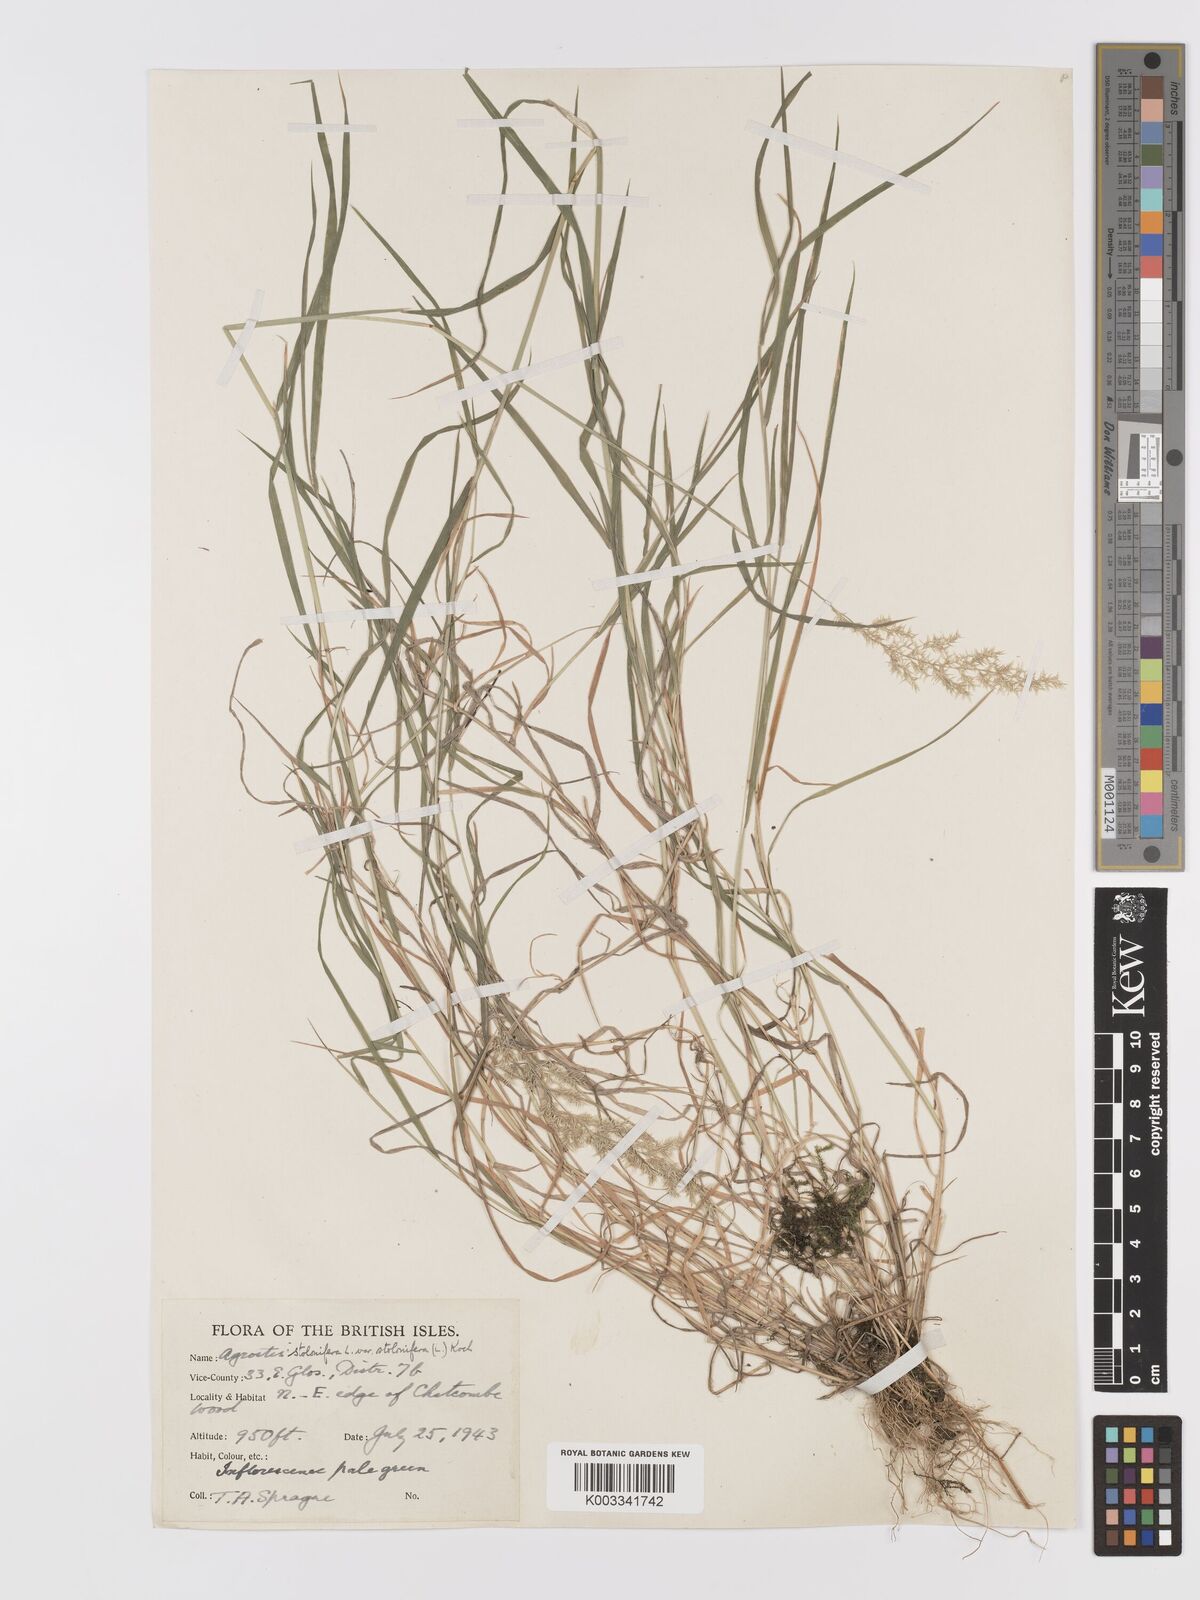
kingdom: Plantae
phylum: Tracheophyta
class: Liliopsida
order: Poales
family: Poaceae
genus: Agrostis
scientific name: Agrostis stolonifera
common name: Creeping bentgrass
